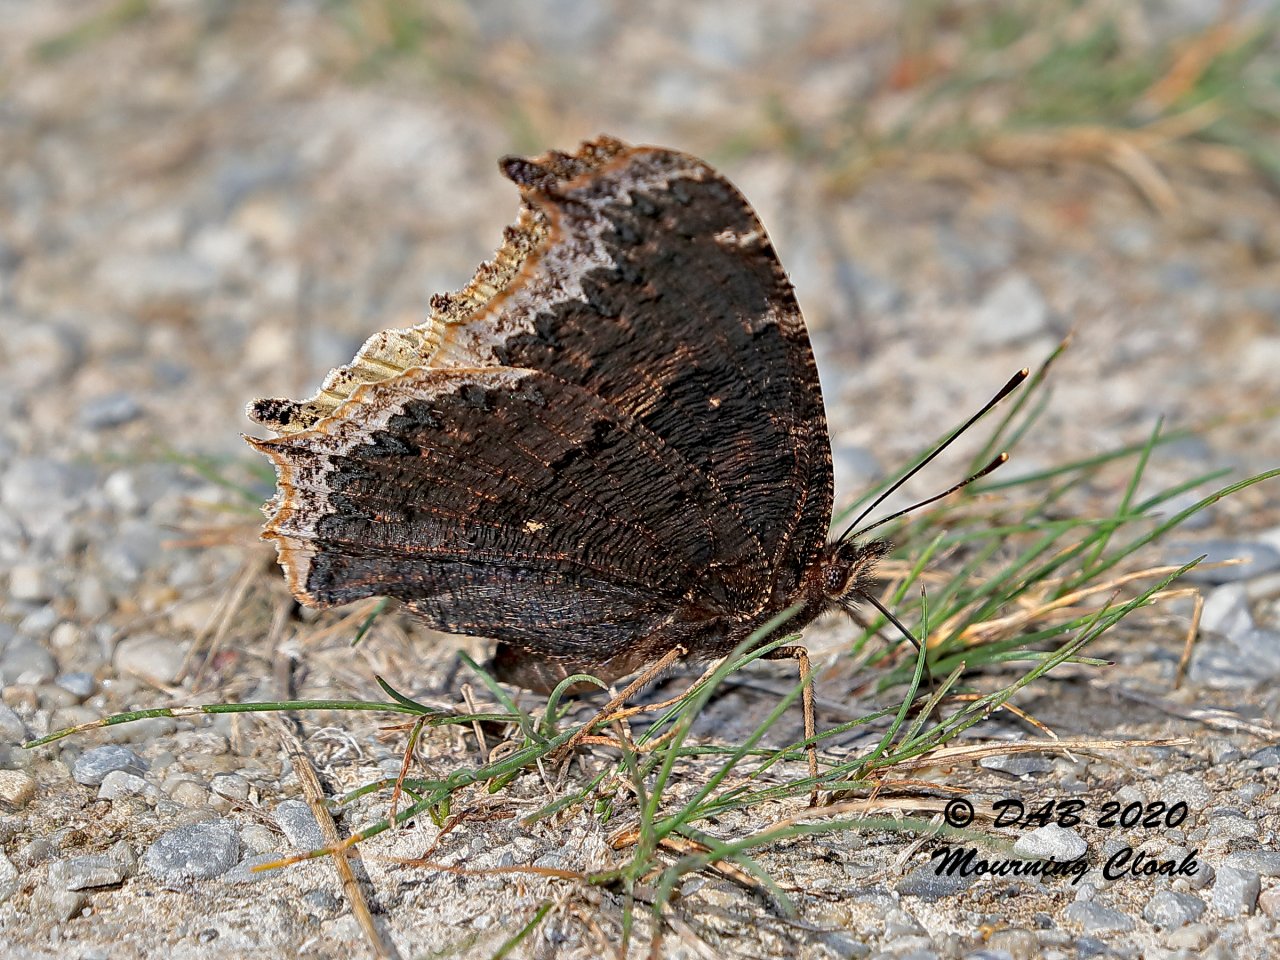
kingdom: Animalia
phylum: Arthropoda
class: Insecta
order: Lepidoptera
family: Nymphalidae
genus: Nymphalis
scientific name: Nymphalis antiopa
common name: Mourning Cloak
